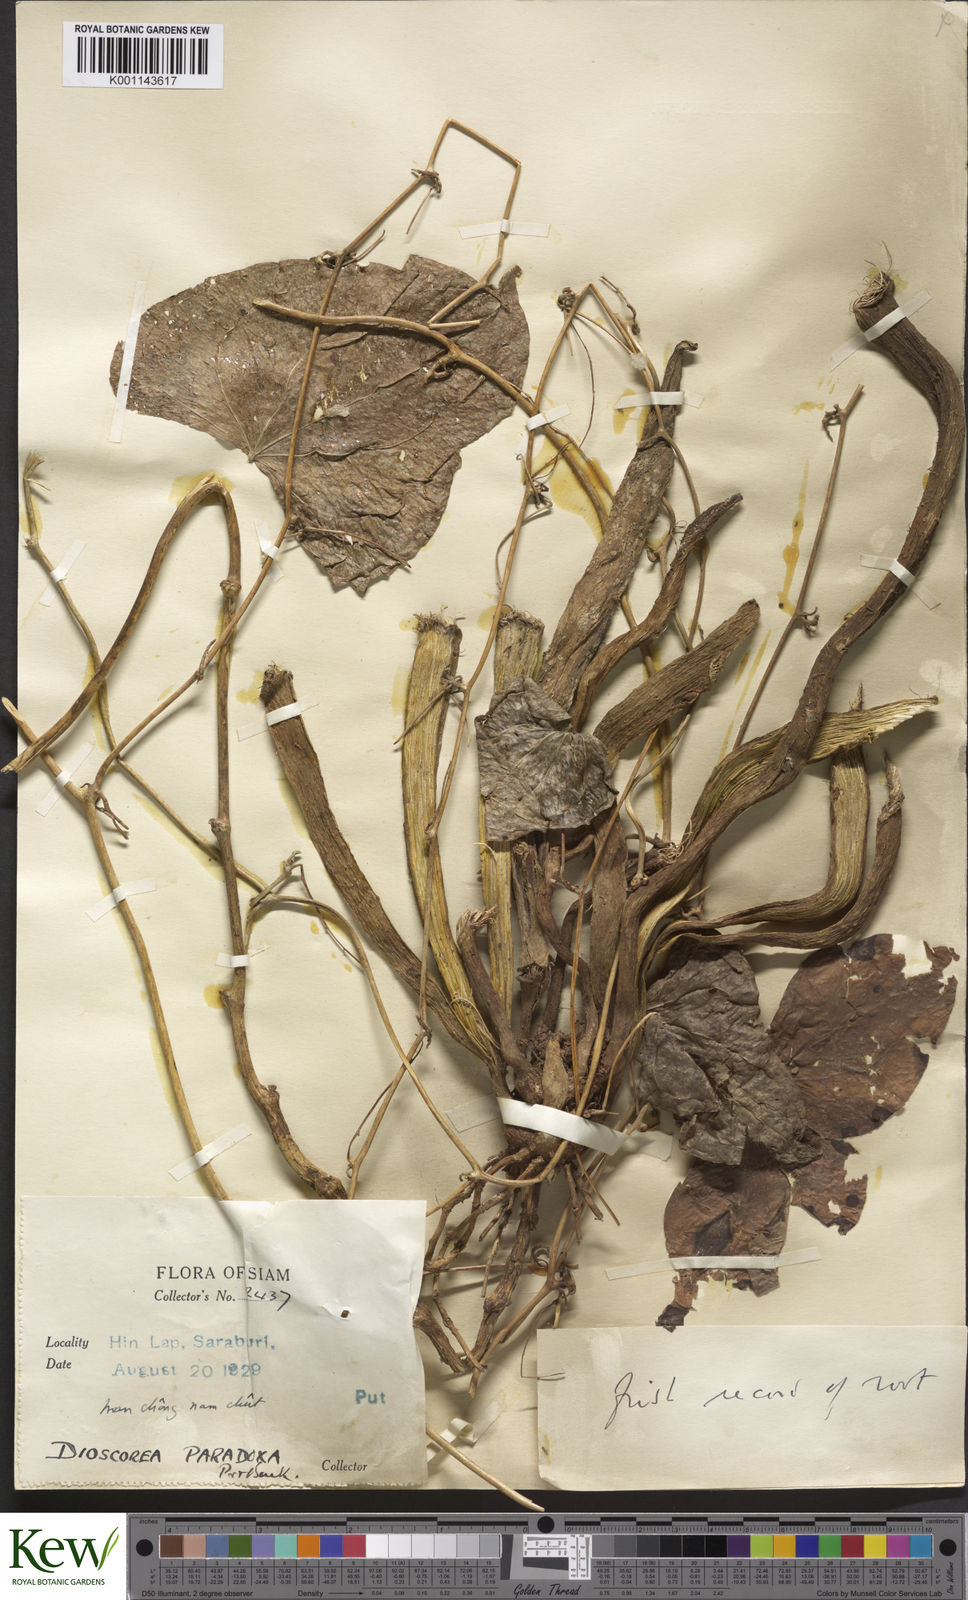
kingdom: Plantae
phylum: Tracheophyta
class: Liliopsida
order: Dioscoreales
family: Dioscoreaceae
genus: Dioscorea
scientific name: Dioscorea paradoxa
